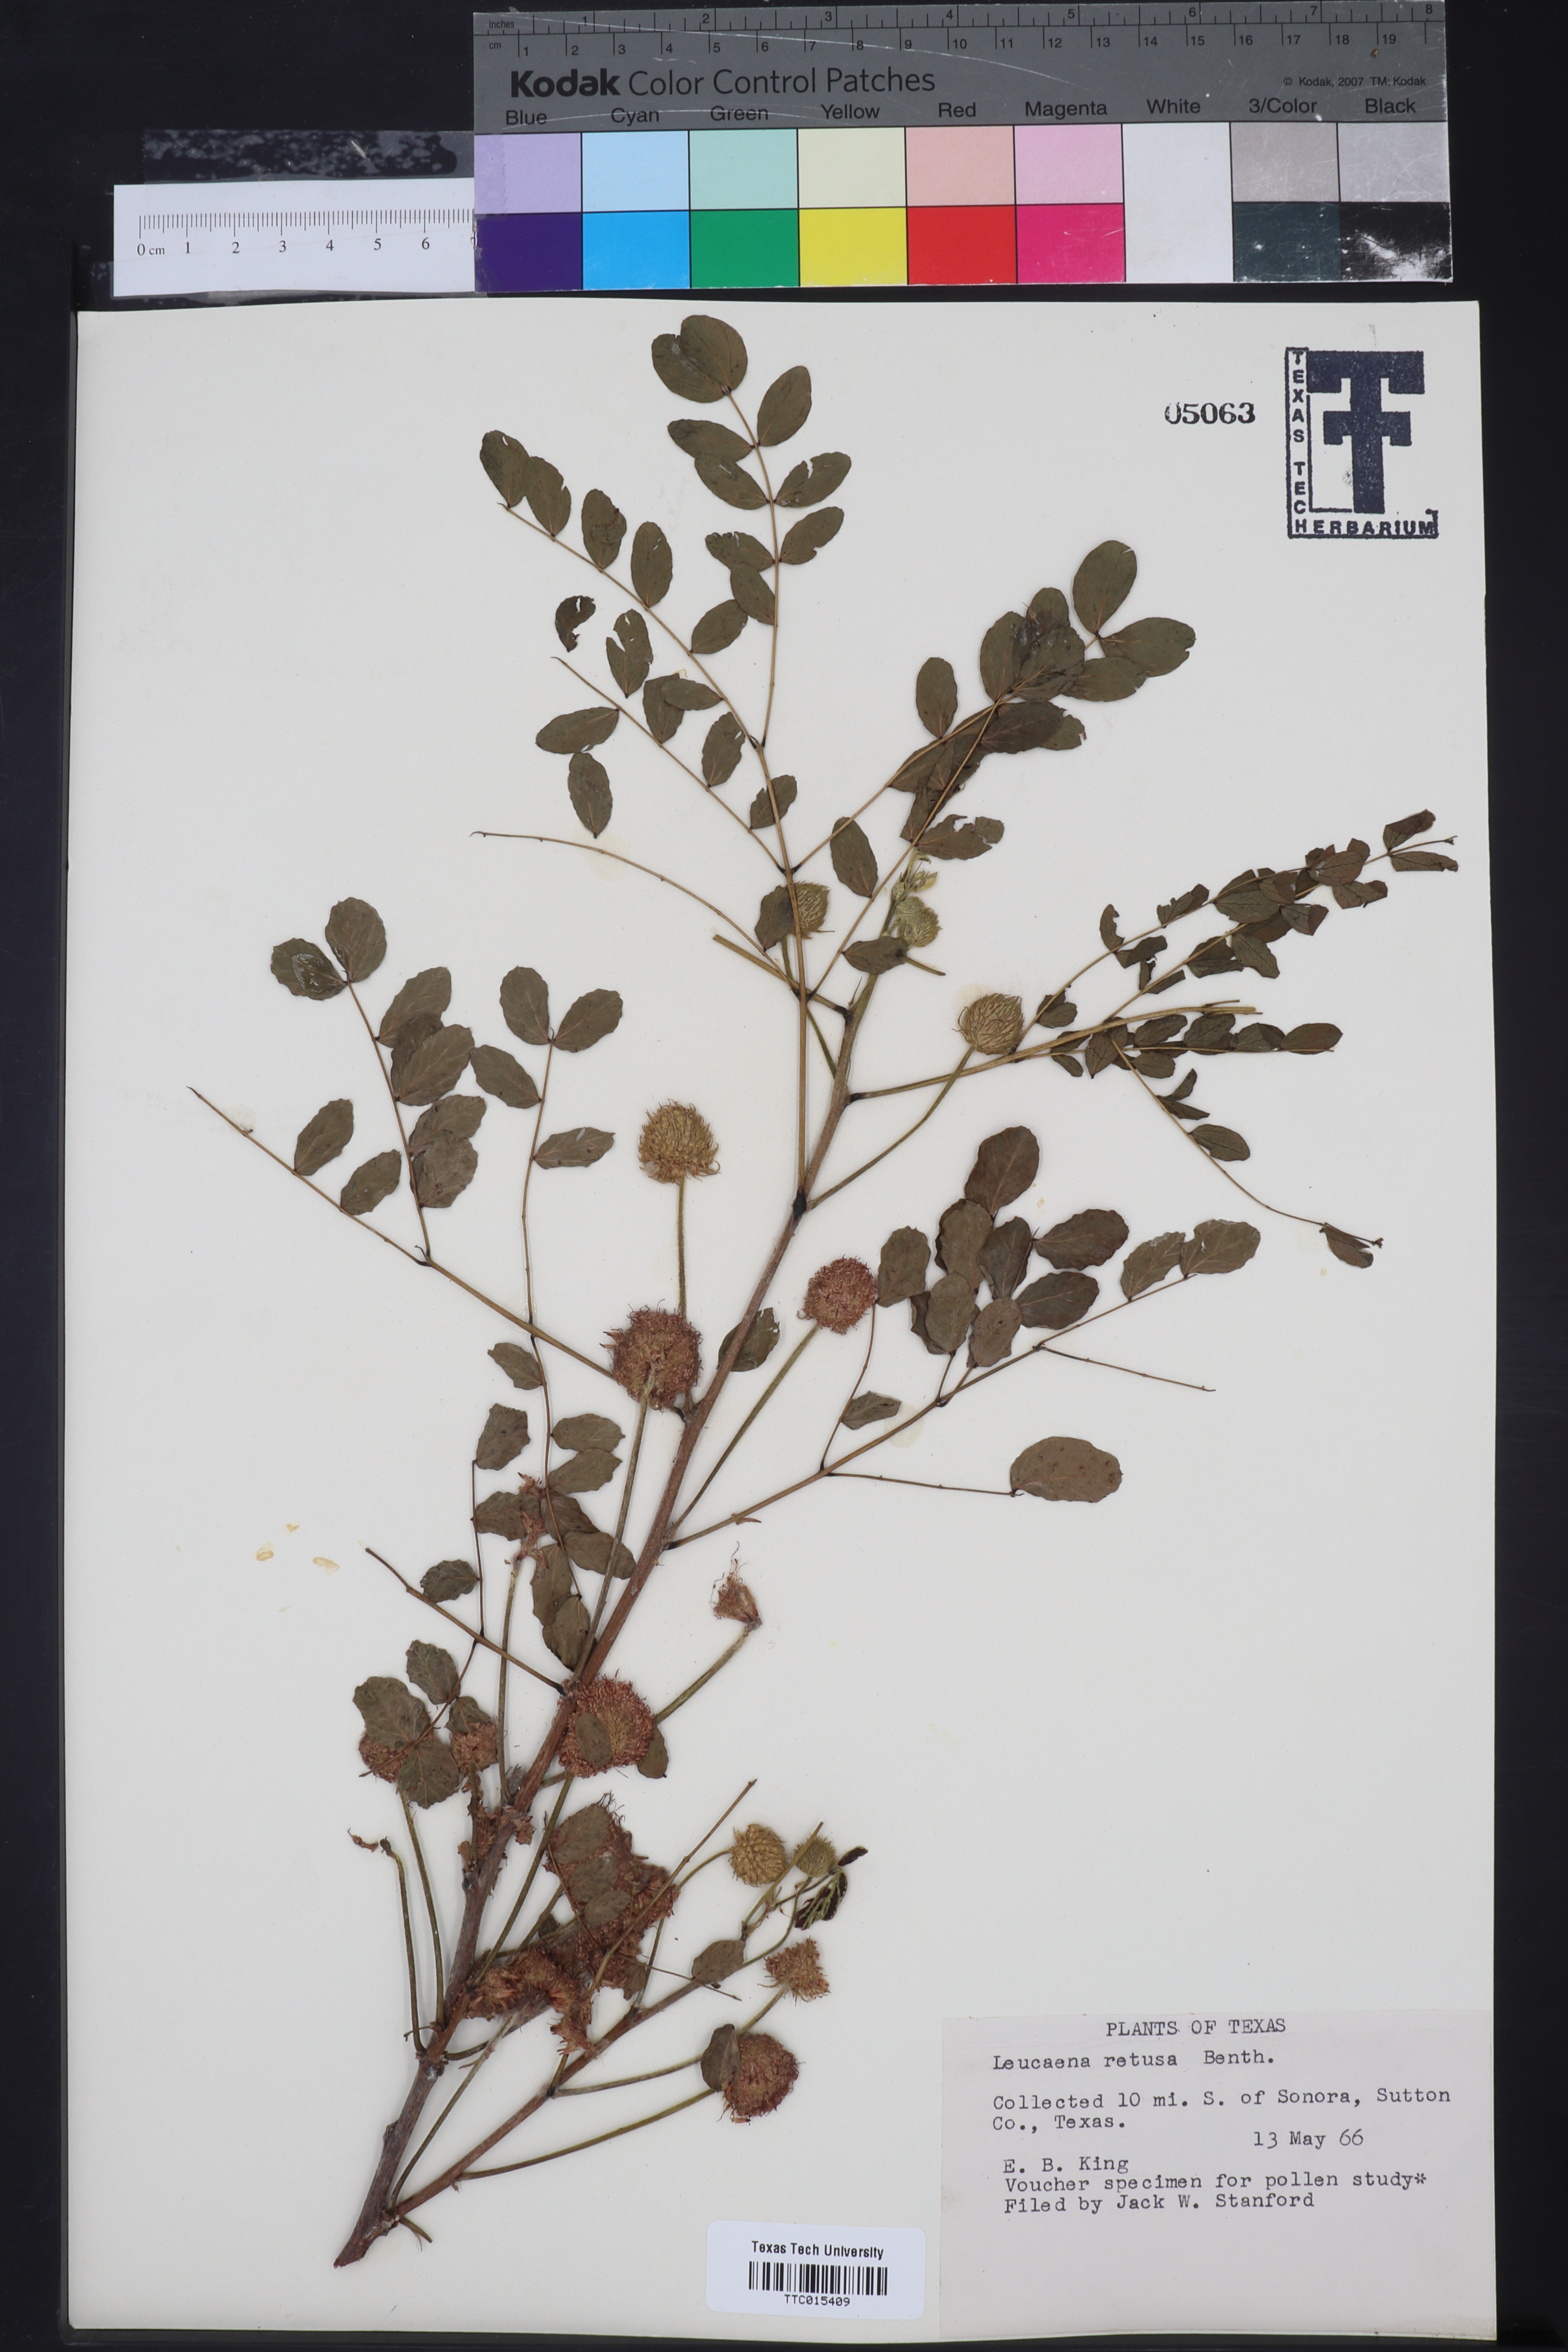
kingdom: Plantae
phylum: Tracheophyta
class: Magnoliopsida
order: Fabales
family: Fabaceae
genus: Leucaena
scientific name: Leucaena retusa
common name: Littleleaf leadtree
